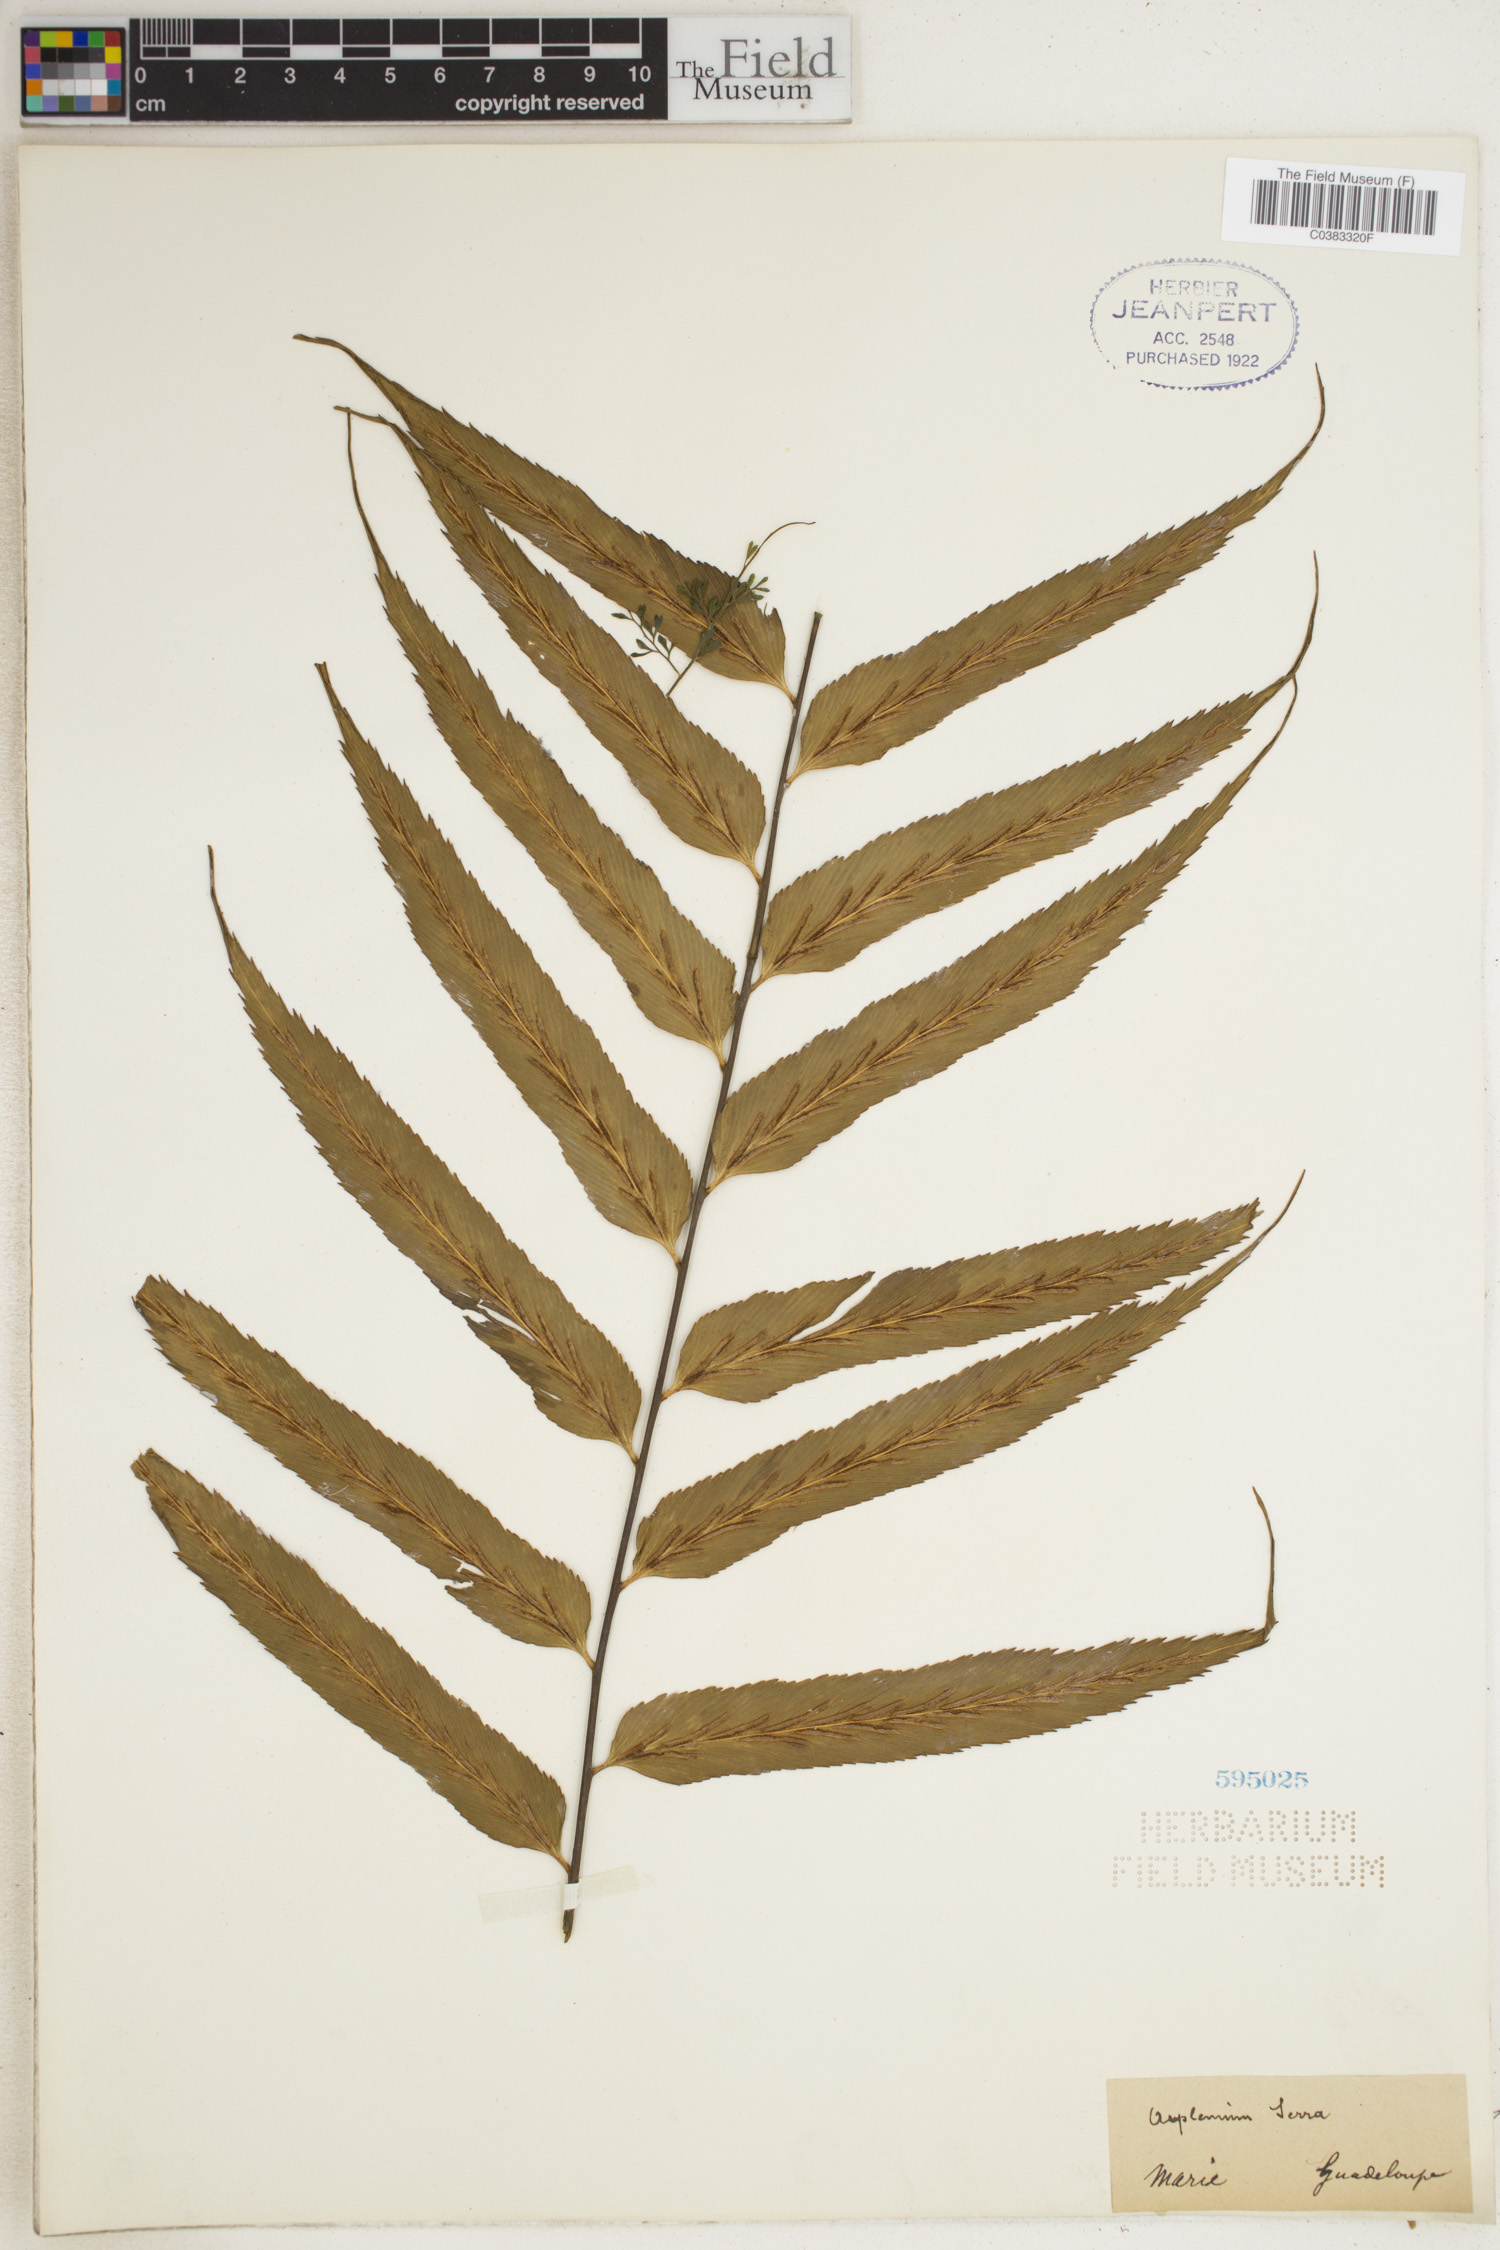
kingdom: Plantae
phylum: Tracheophyta
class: Polypodiopsida
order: Polypodiales
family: Aspleniaceae
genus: Asplenium
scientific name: Asplenium serra
